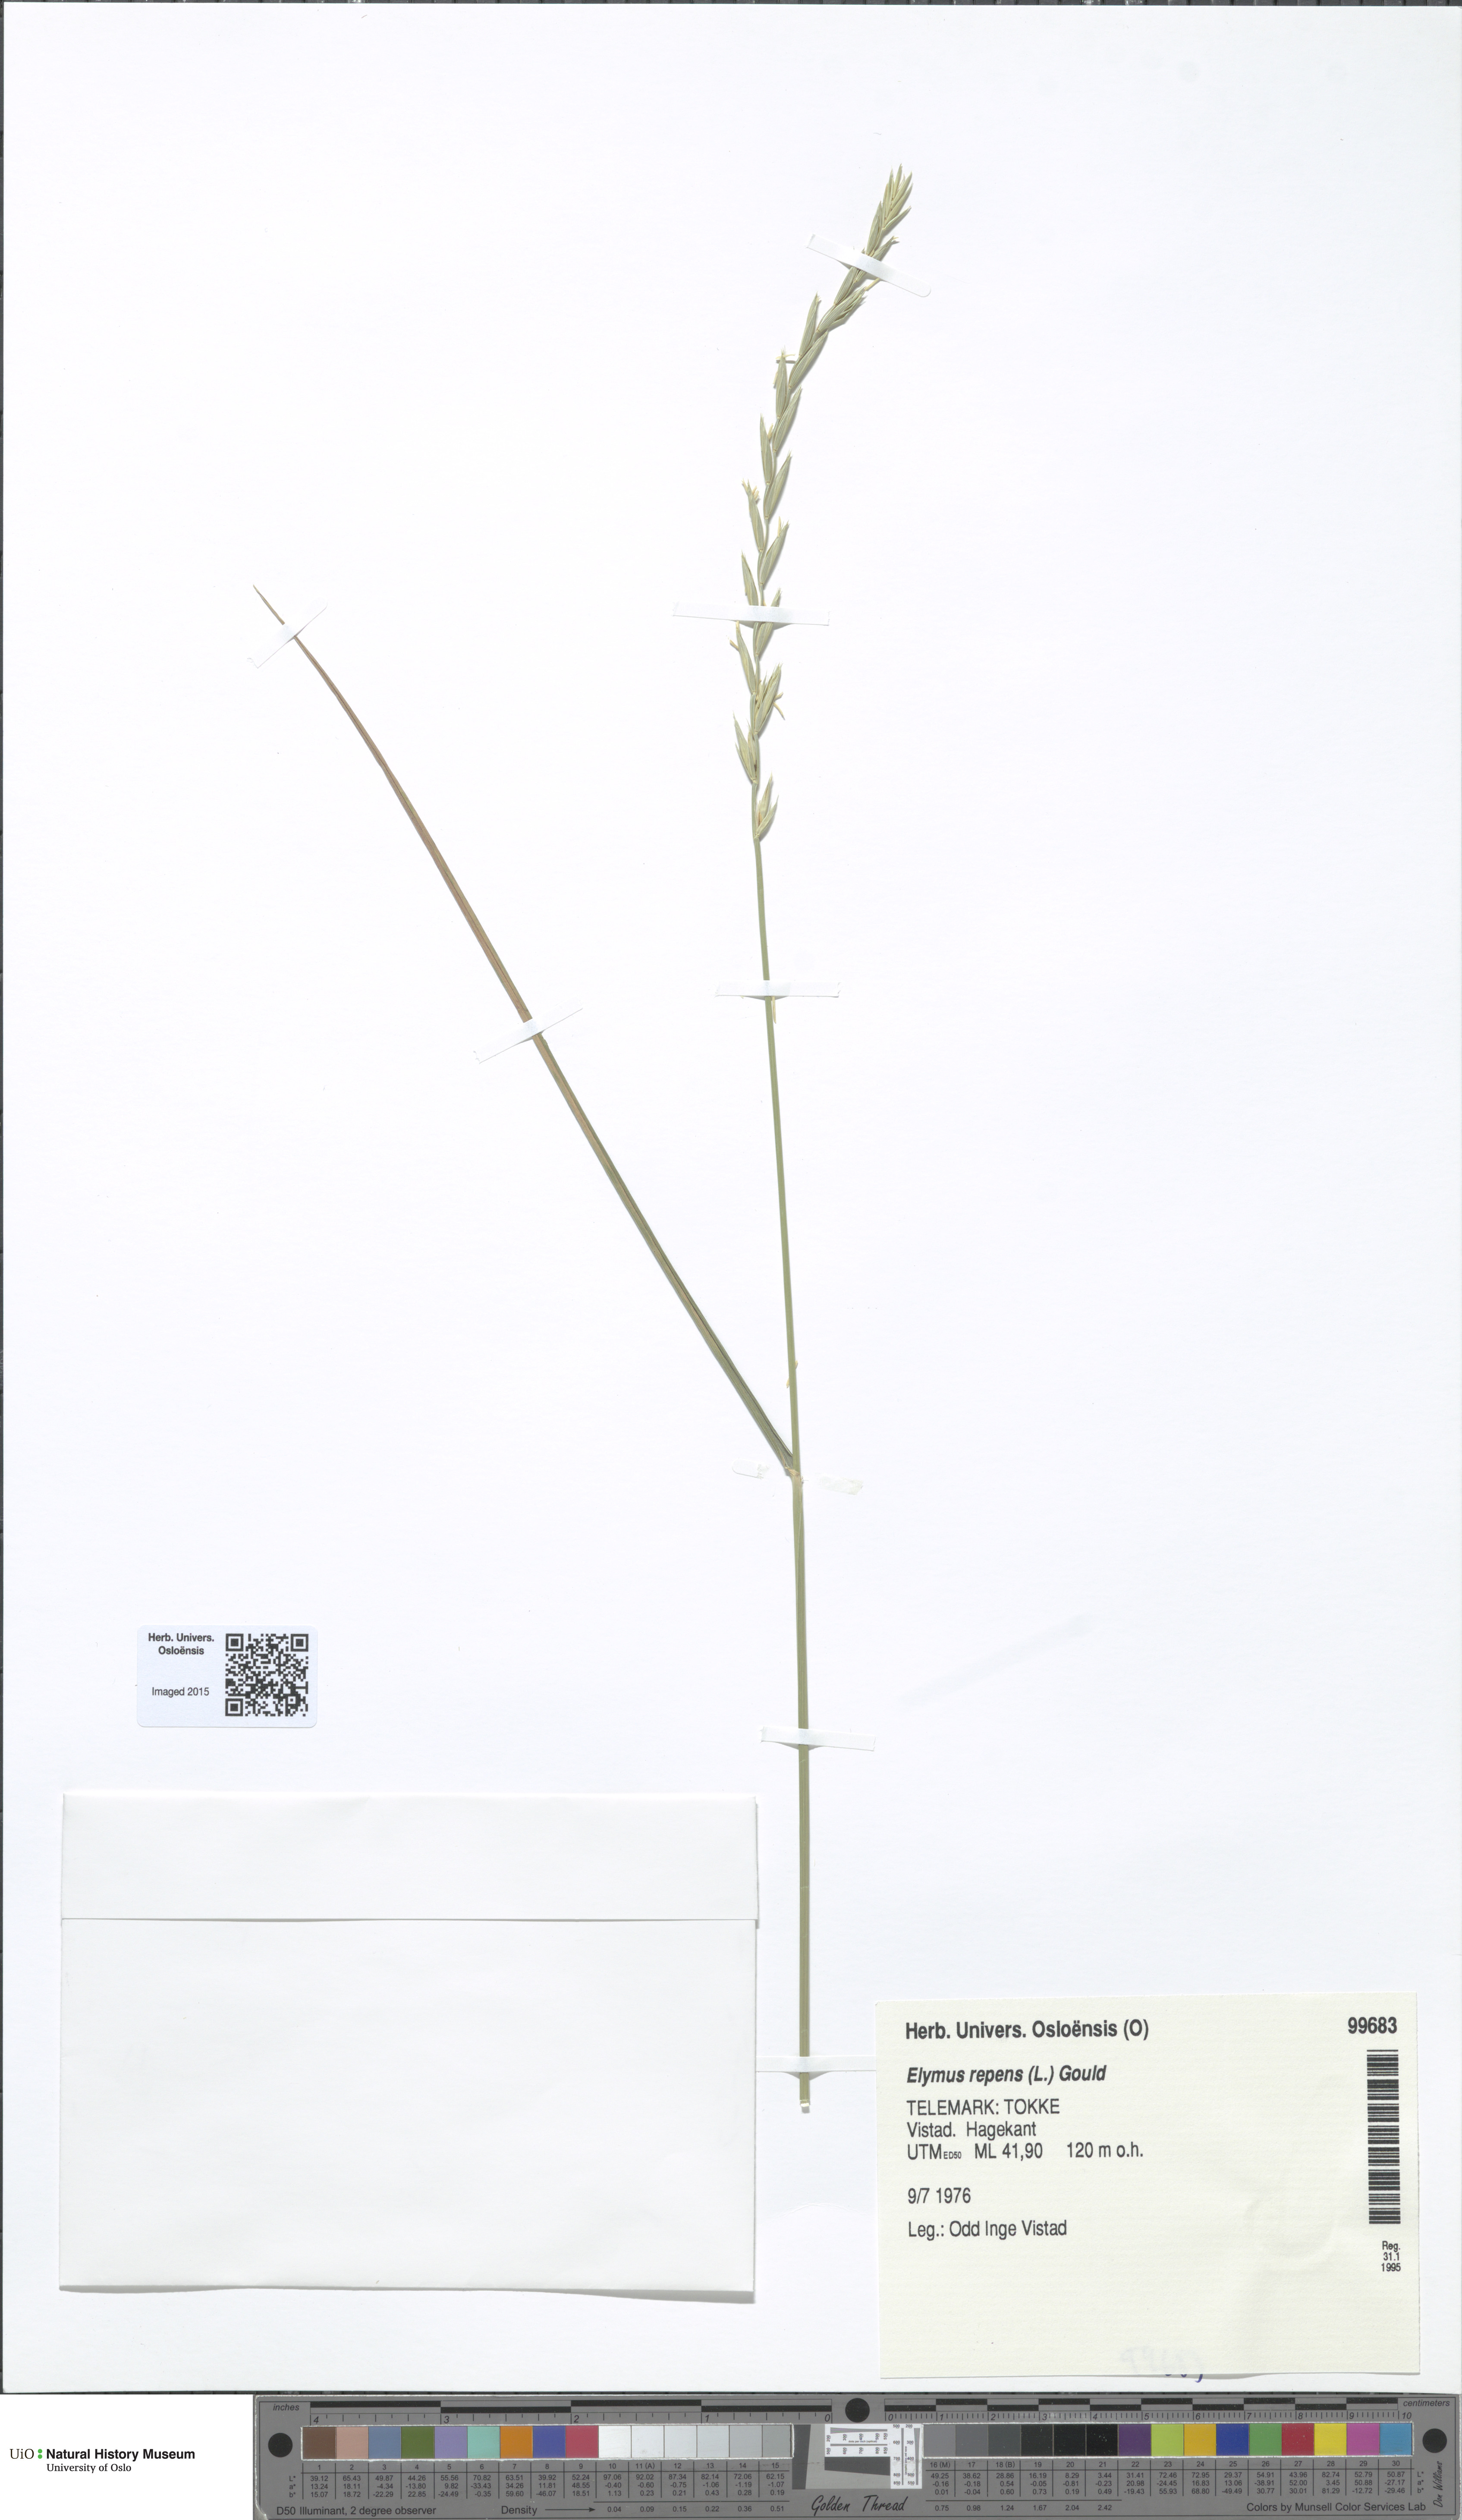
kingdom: Plantae
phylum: Tracheophyta
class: Liliopsida
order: Poales
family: Poaceae
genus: Elymus
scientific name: Elymus repens
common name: Quackgrass
